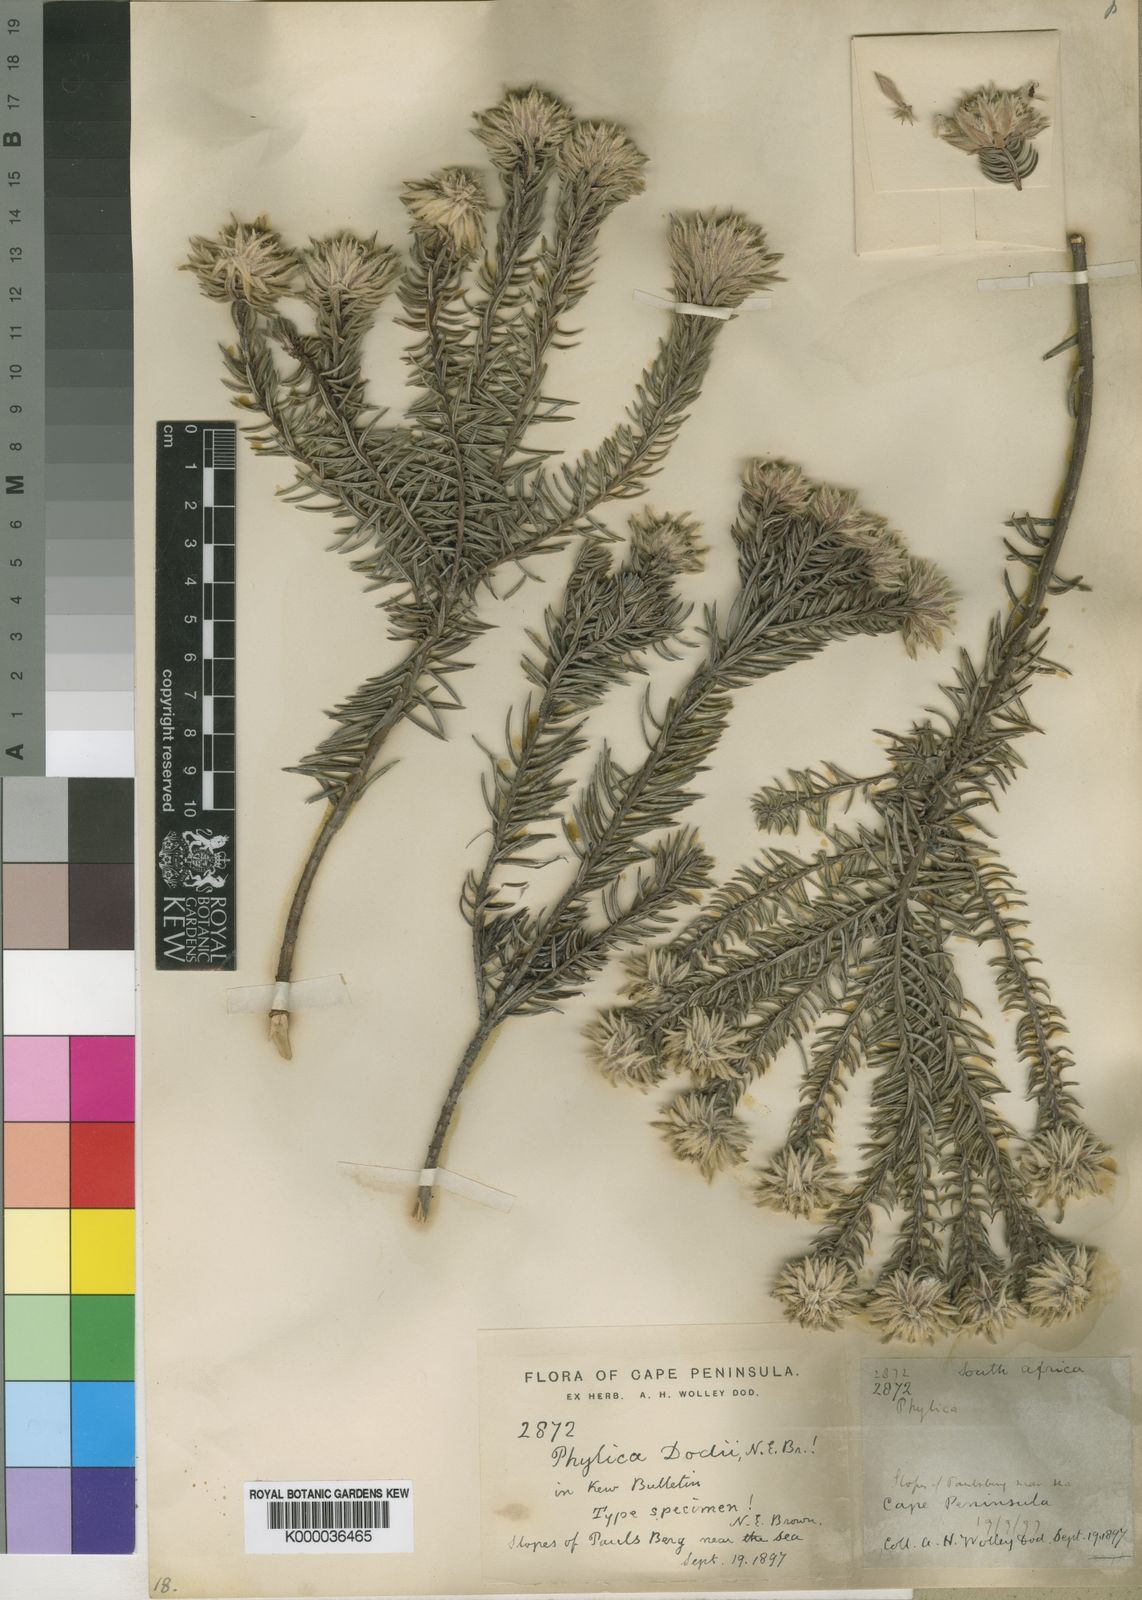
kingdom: Plantae
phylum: Tracheophyta
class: Magnoliopsida
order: Rosales
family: Rhamnaceae
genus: Phylica
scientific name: Phylica dodii
